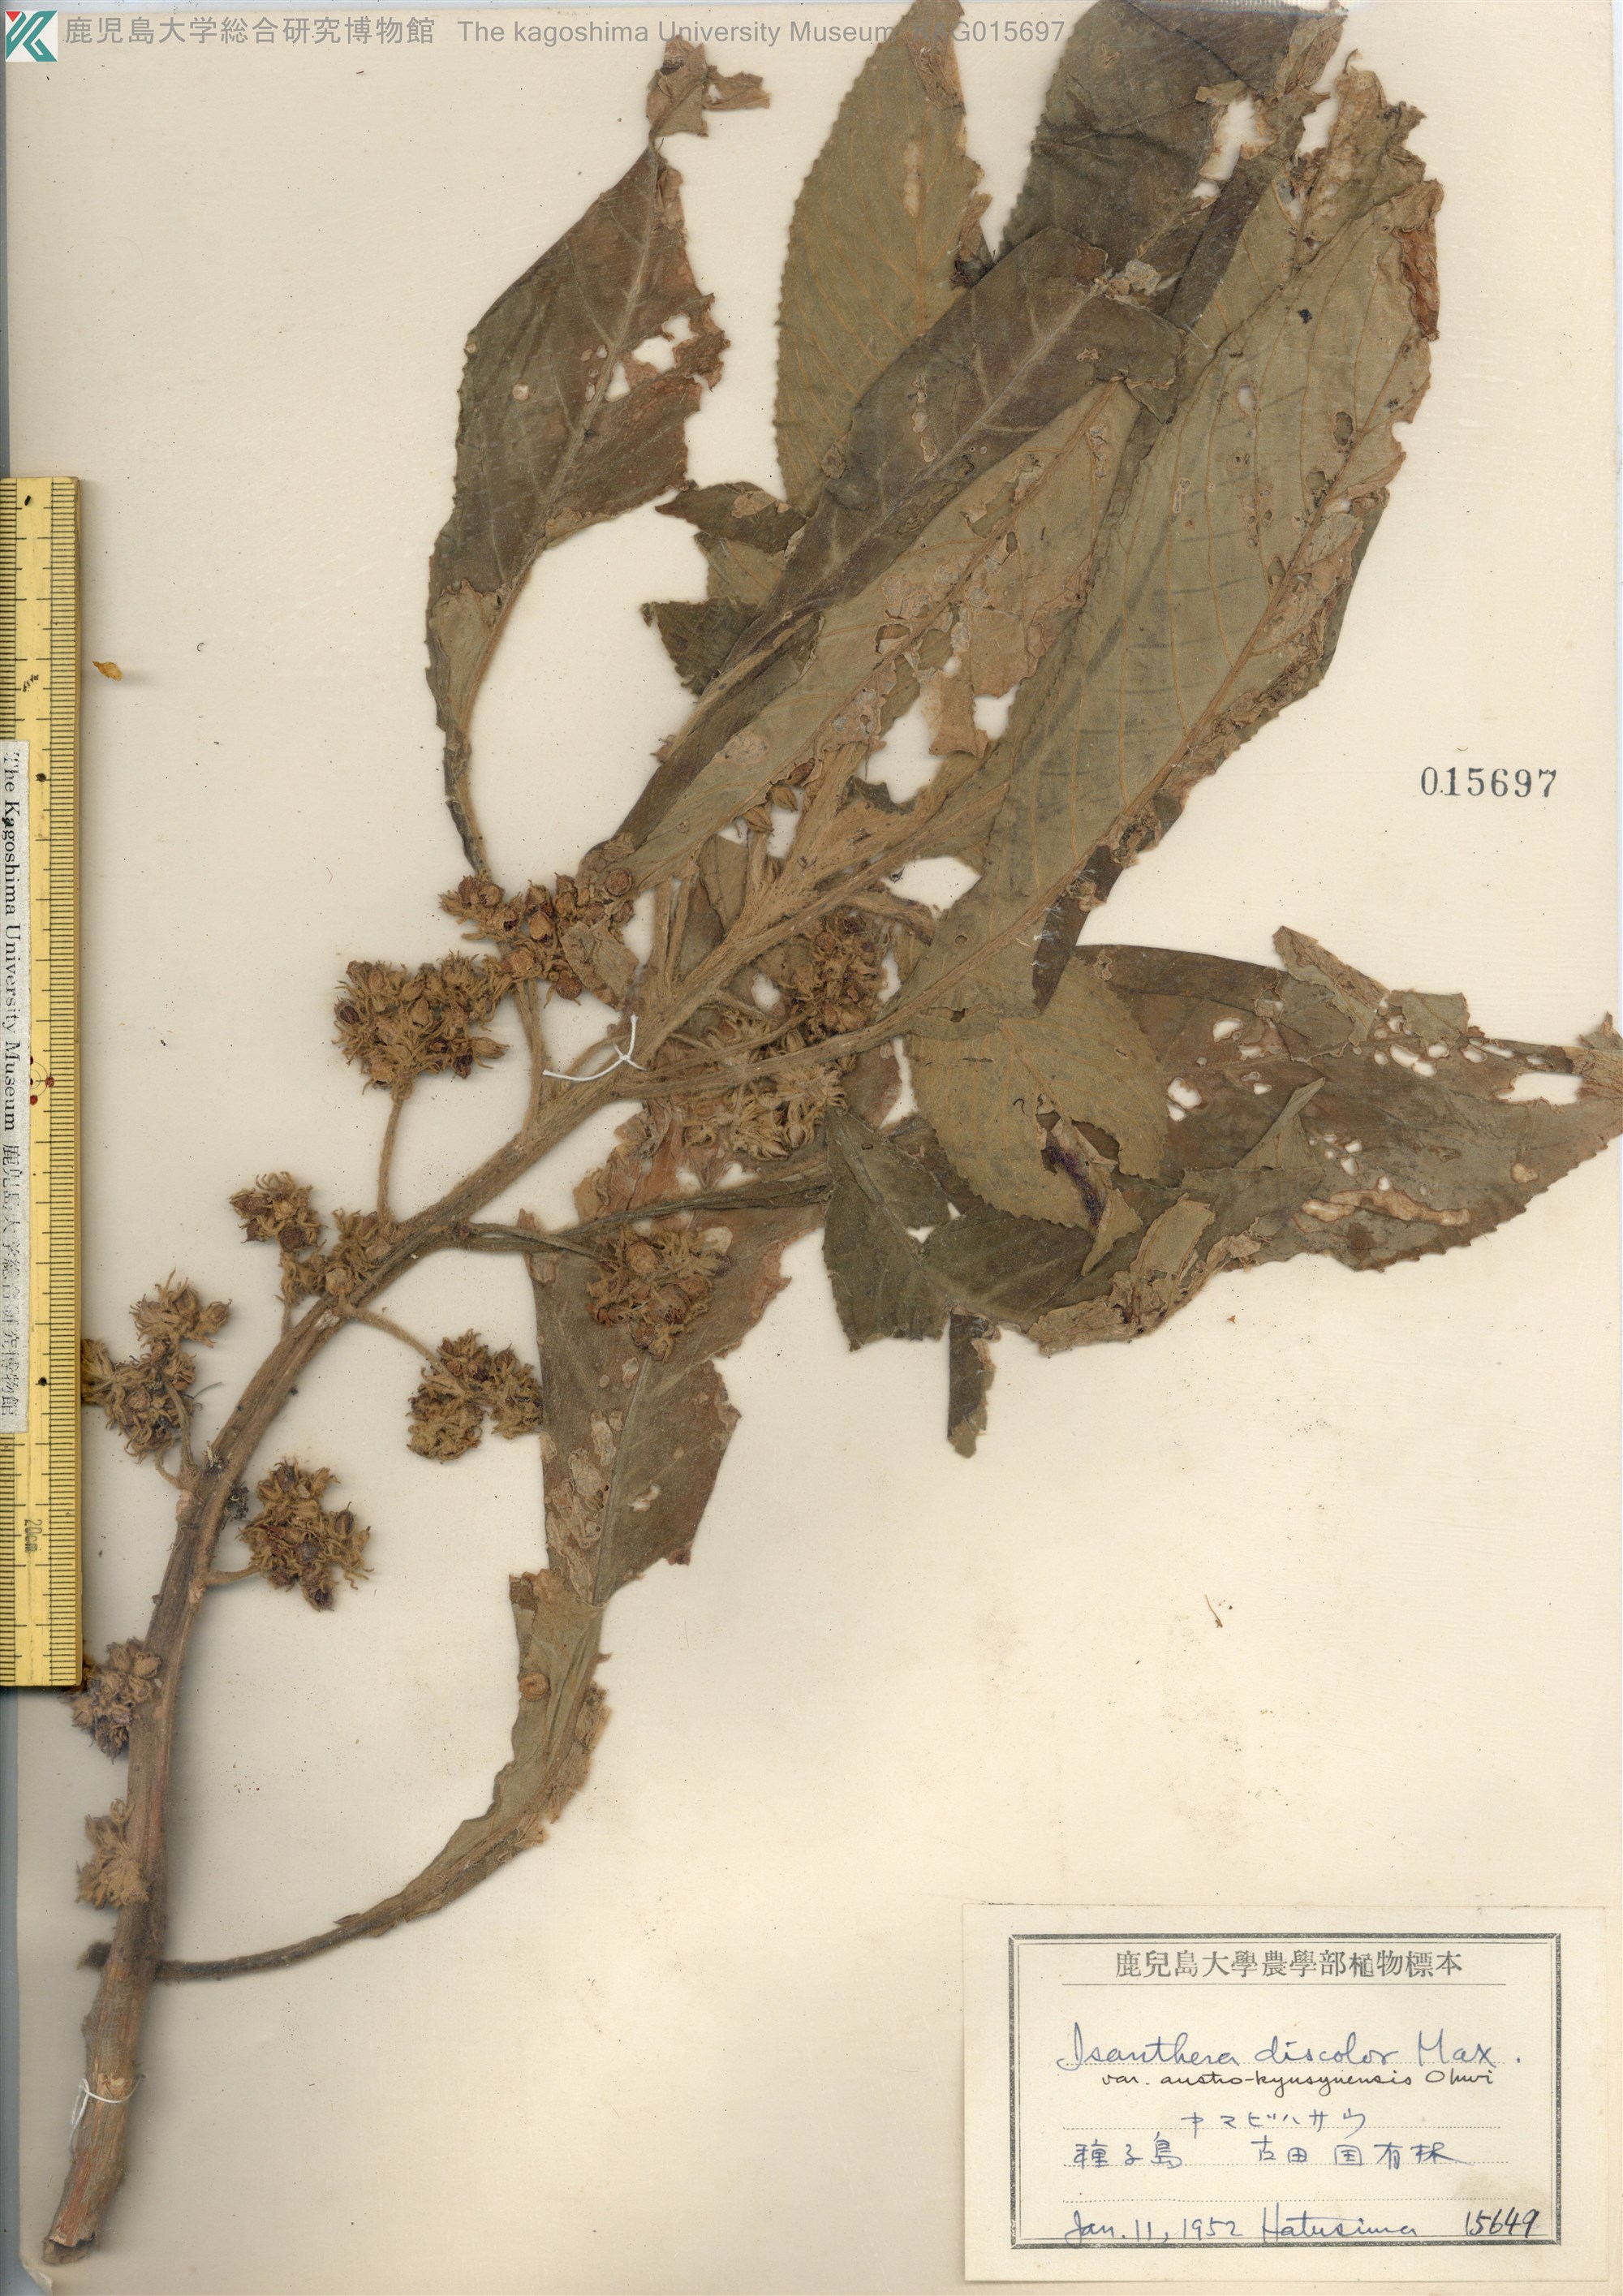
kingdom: Plantae
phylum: Tracheophyta
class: Magnoliopsida
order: Lamiales
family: Gesneriaceae
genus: Rhynchotechum
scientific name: Rhynchotechum discolor
